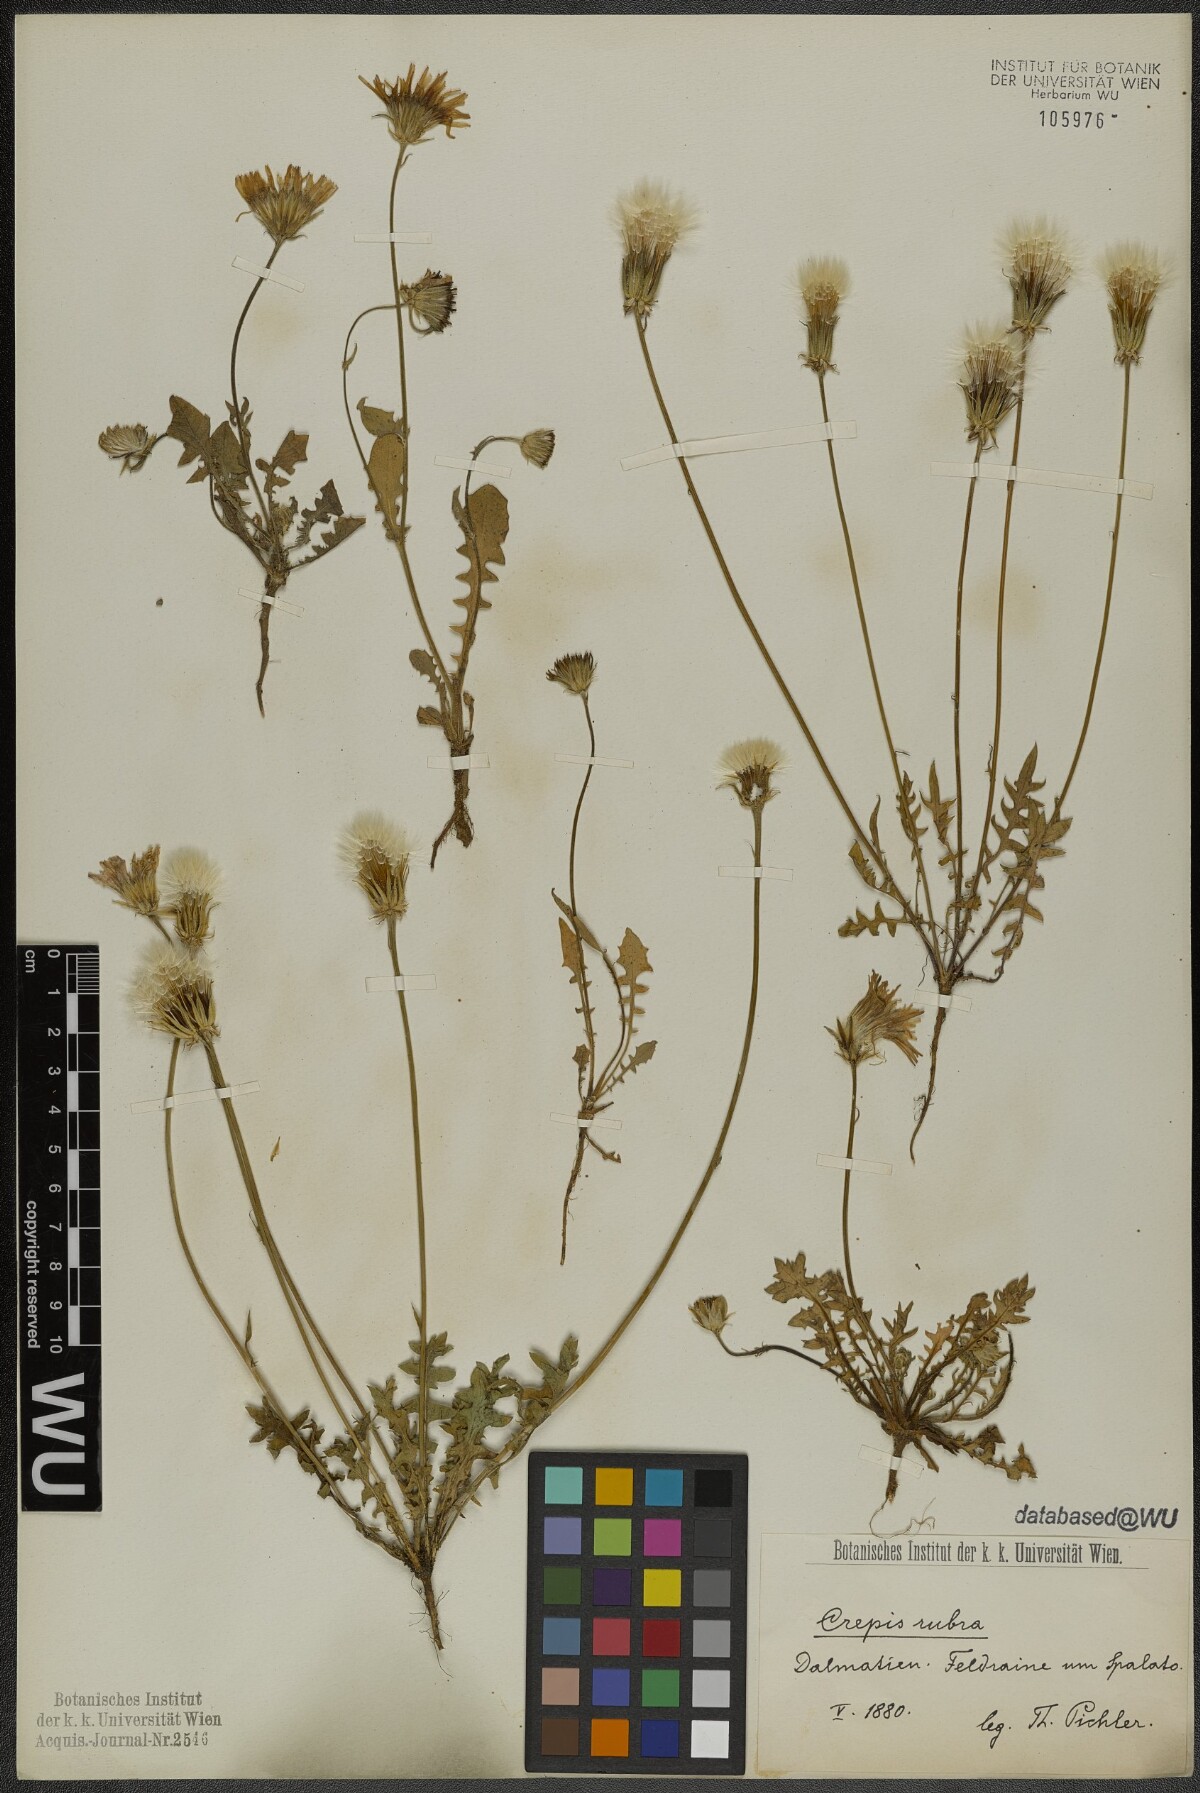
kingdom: Plantae
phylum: Tracheophyta
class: Magnoliopsida
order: Asterales
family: Asteraceae
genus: Crepis
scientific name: Crepis rubra
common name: Pink hawk's-beard
